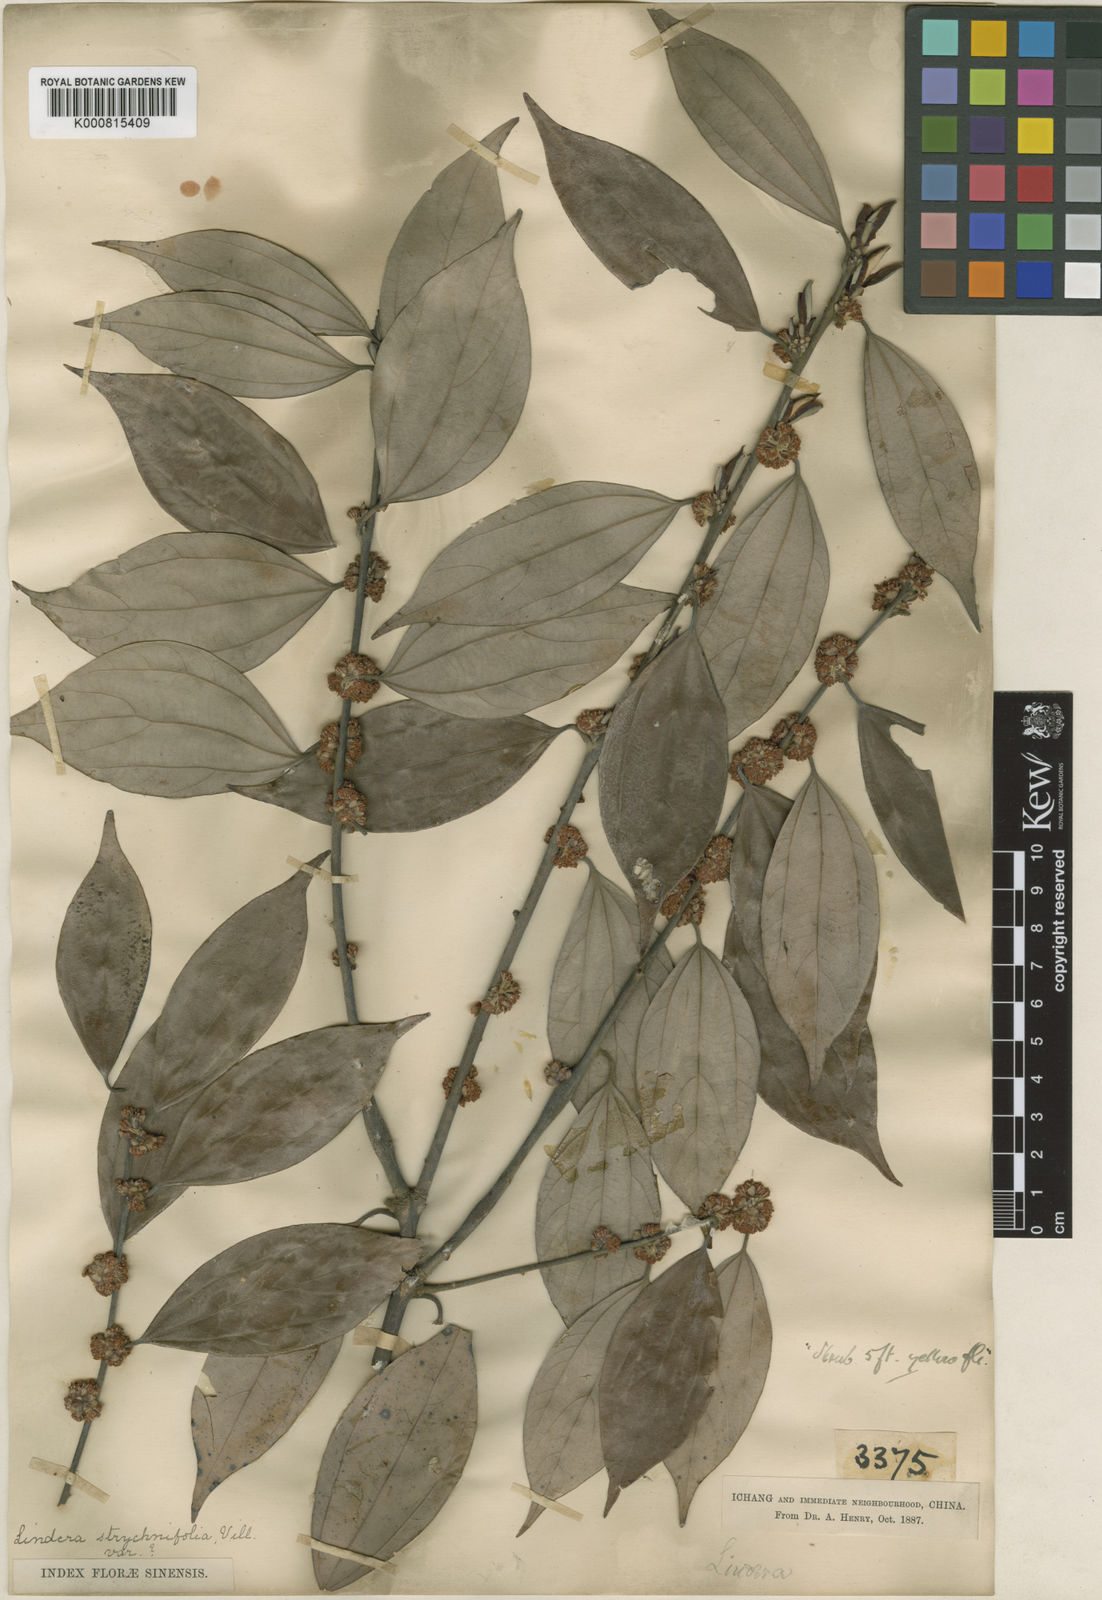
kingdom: Plantae
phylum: Tracheophyta
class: Magnoliopsida
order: Laurales
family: Lauraceae
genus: Lindera
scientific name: Lindera aggregata
